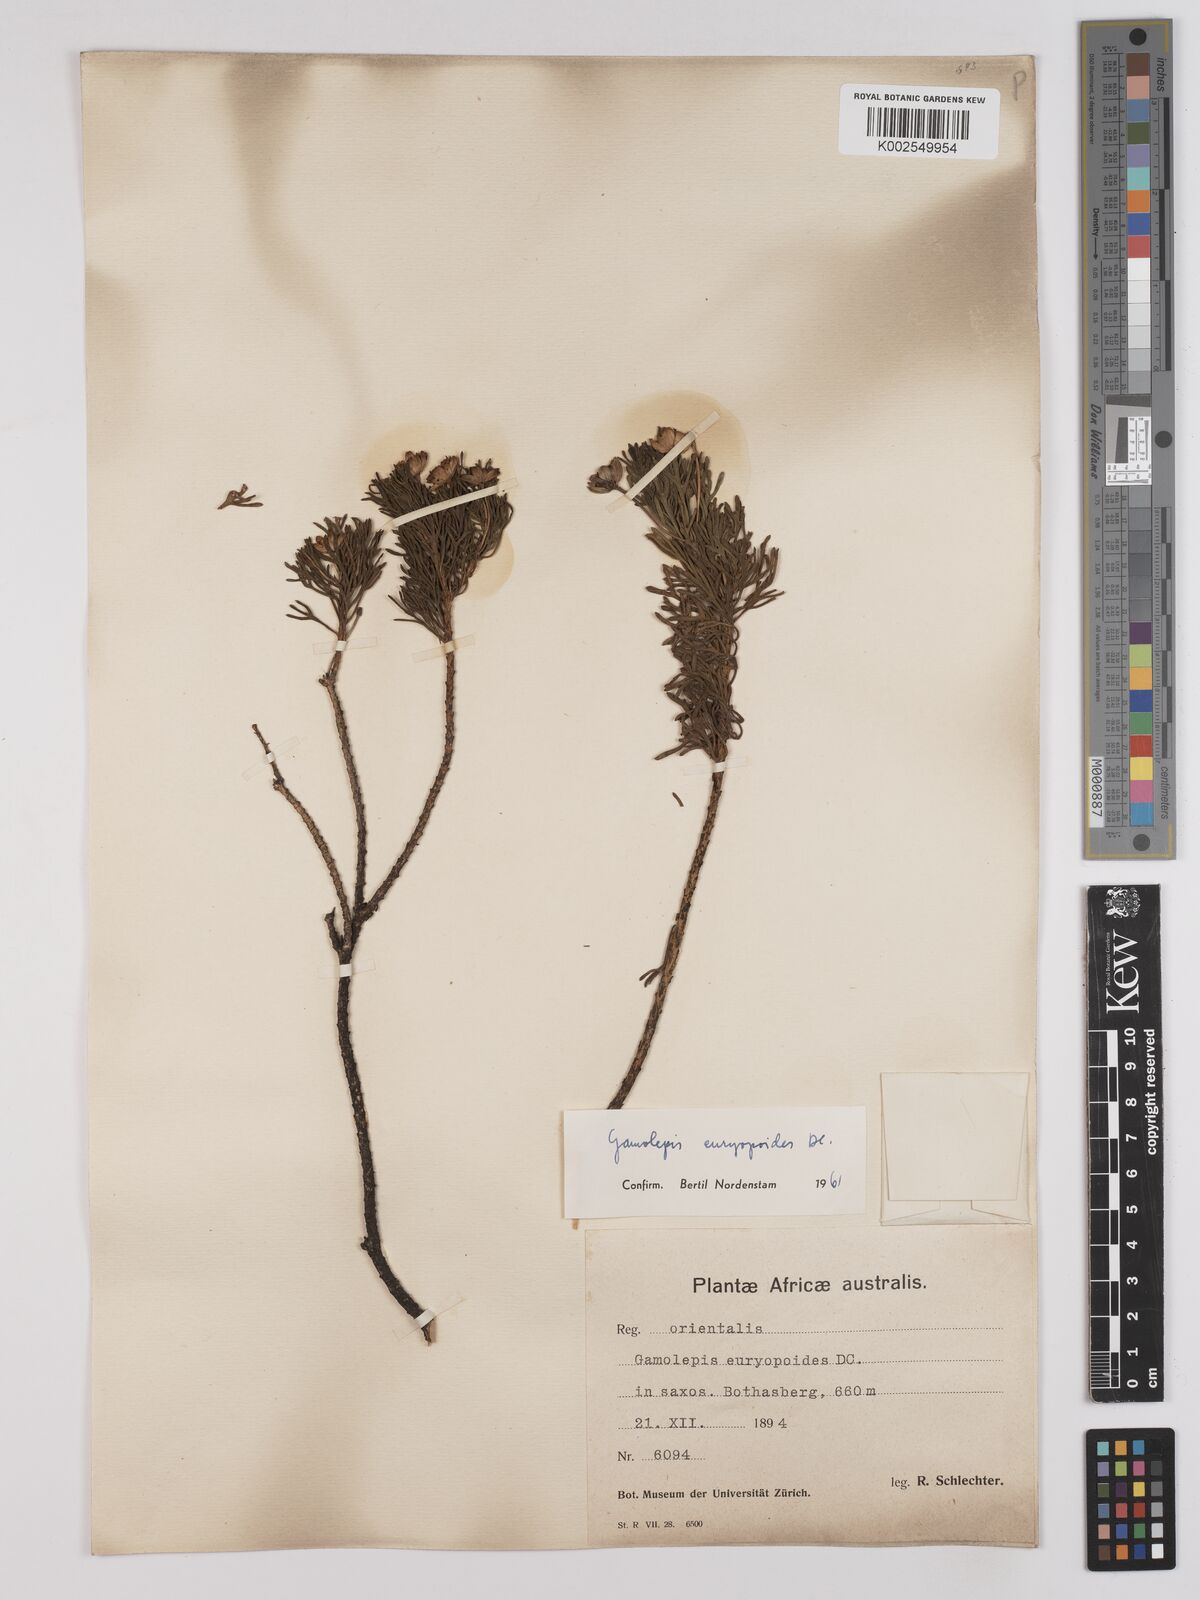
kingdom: Plantae
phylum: Tracheophyta
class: Magnoliopsida
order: Asterales
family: Asteraceae
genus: Euryops
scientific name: Euryops euryopoides
